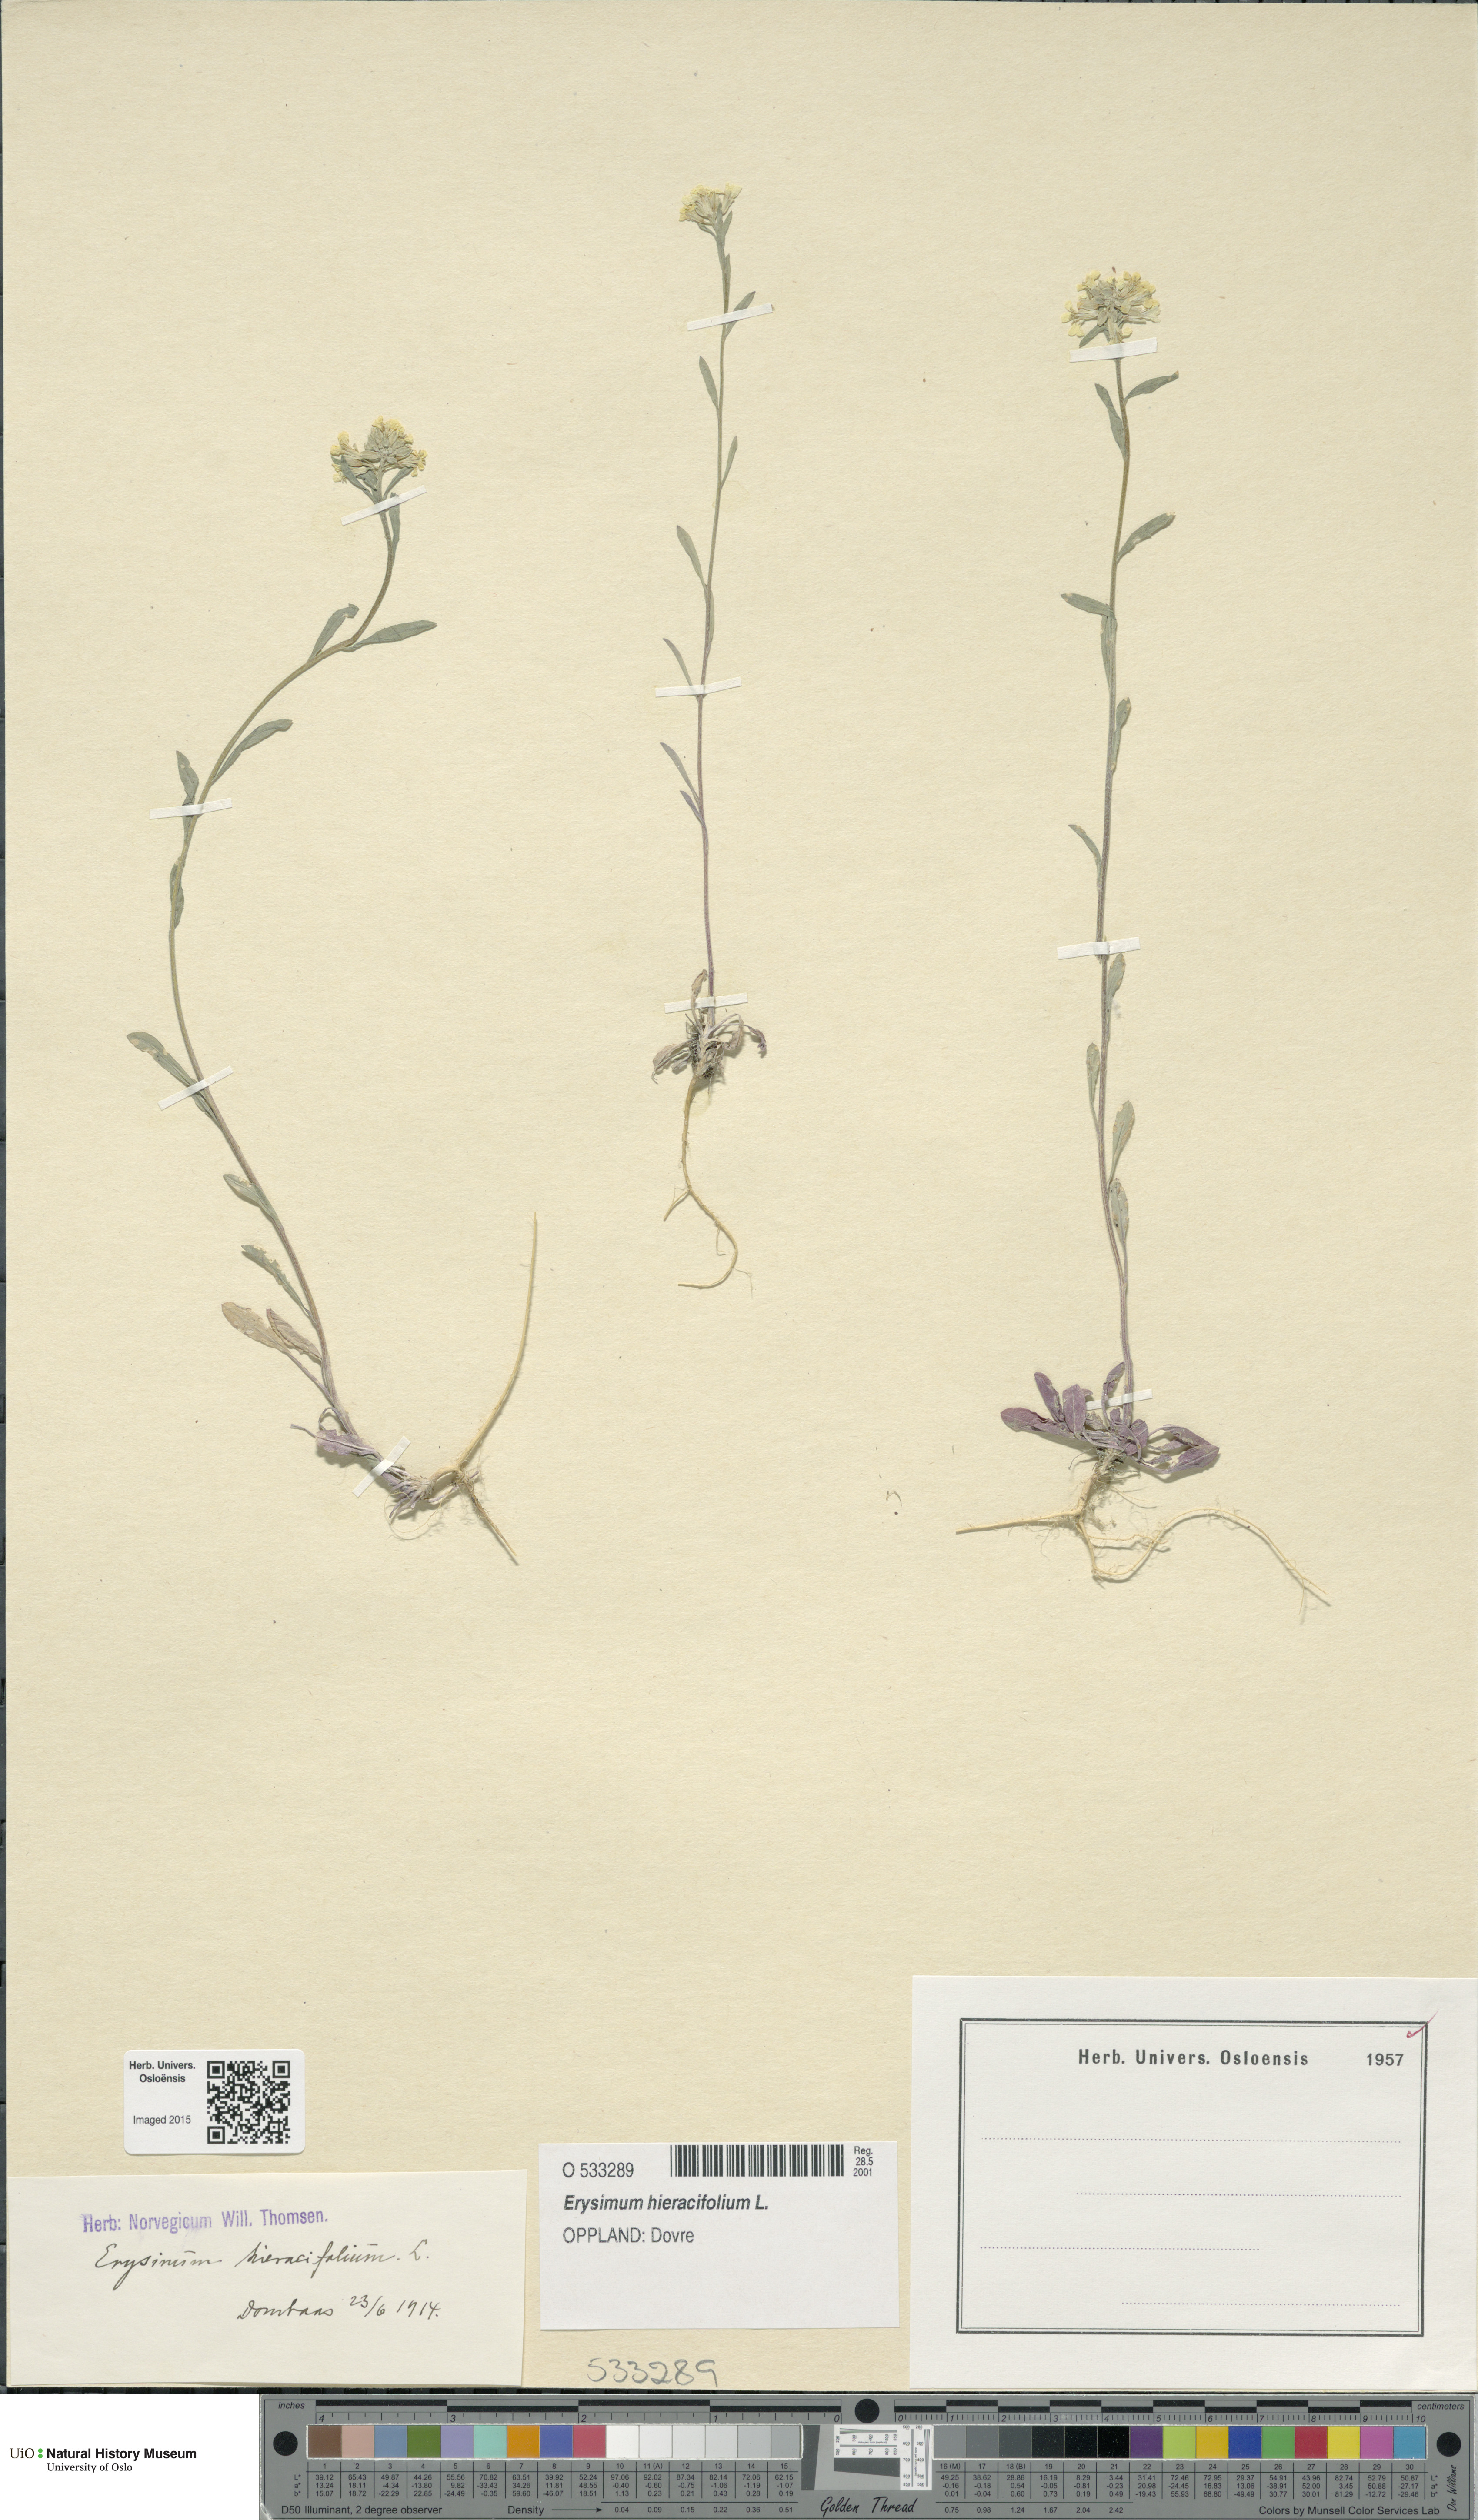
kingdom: Plantae
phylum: Tracheophyta
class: Magnoliopsida
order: Brassicales
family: Brassicaceae
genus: Erysimum
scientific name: Erysimum hieraciifolium
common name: European wallflower
